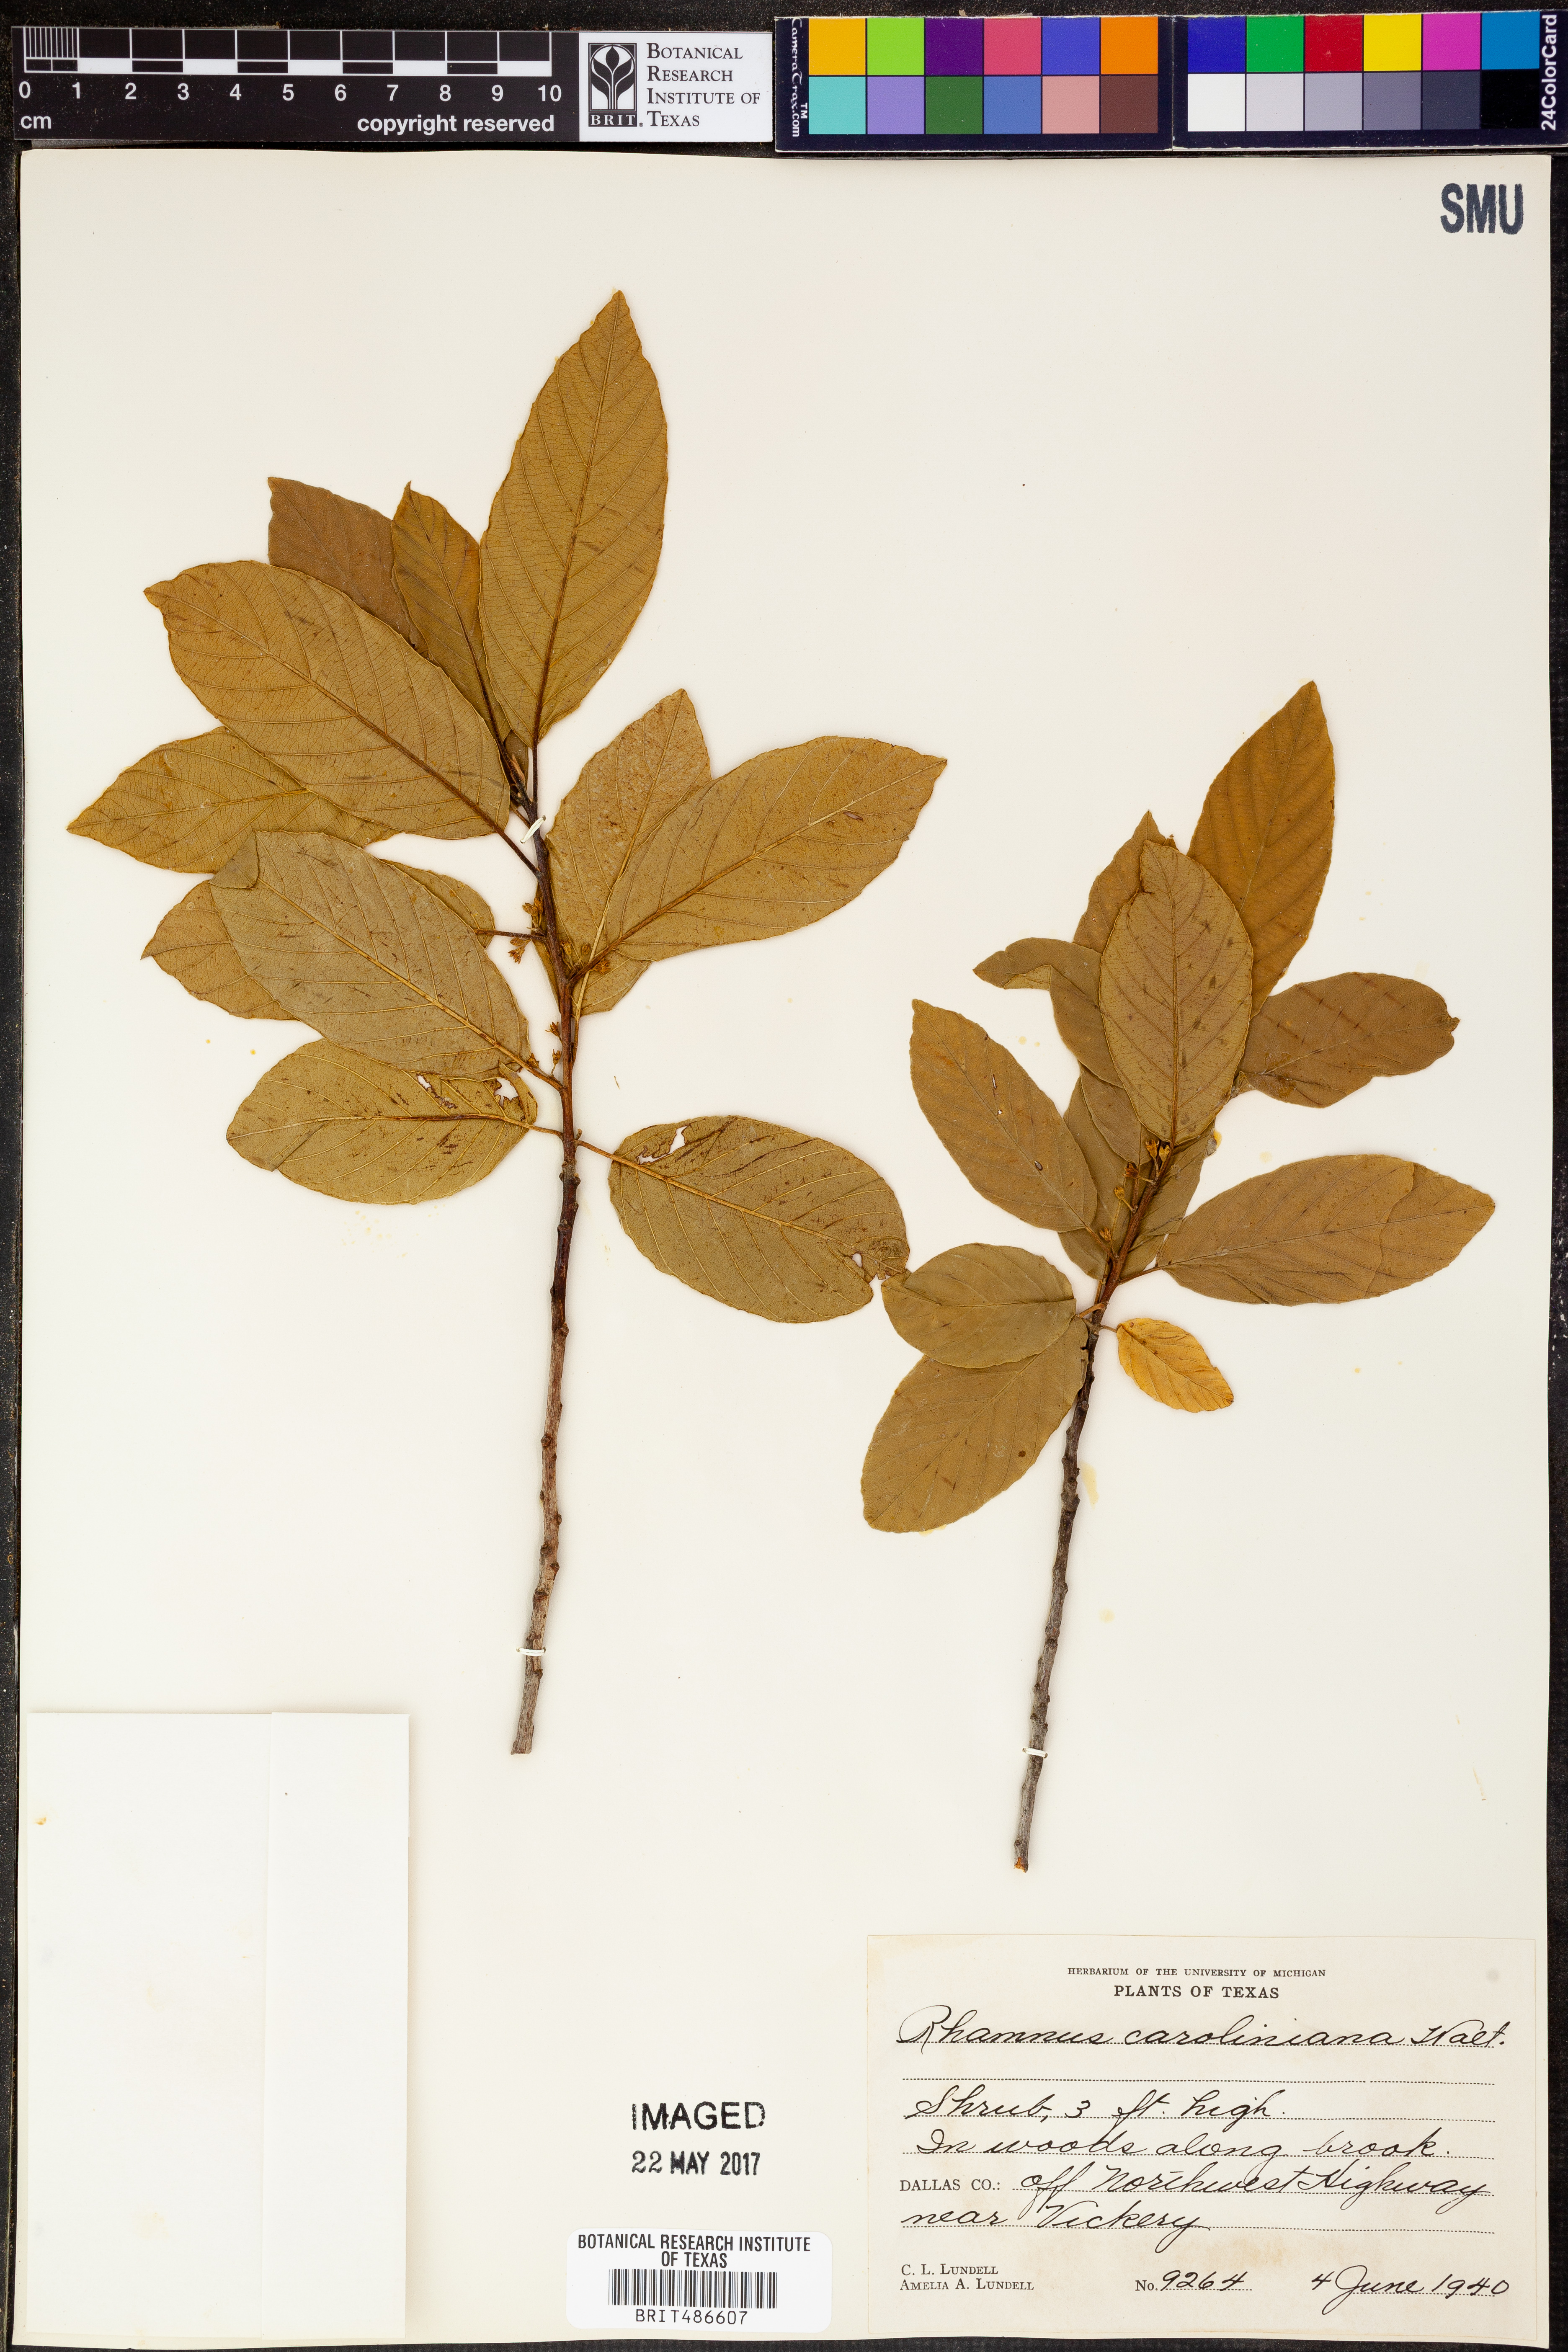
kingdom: Plantae
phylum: Tracheophyta
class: Magnoliopsida
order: Rosales
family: Rhamnaceae
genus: Frangula
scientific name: Frangula caroliniana
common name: Carolina buckthorn
